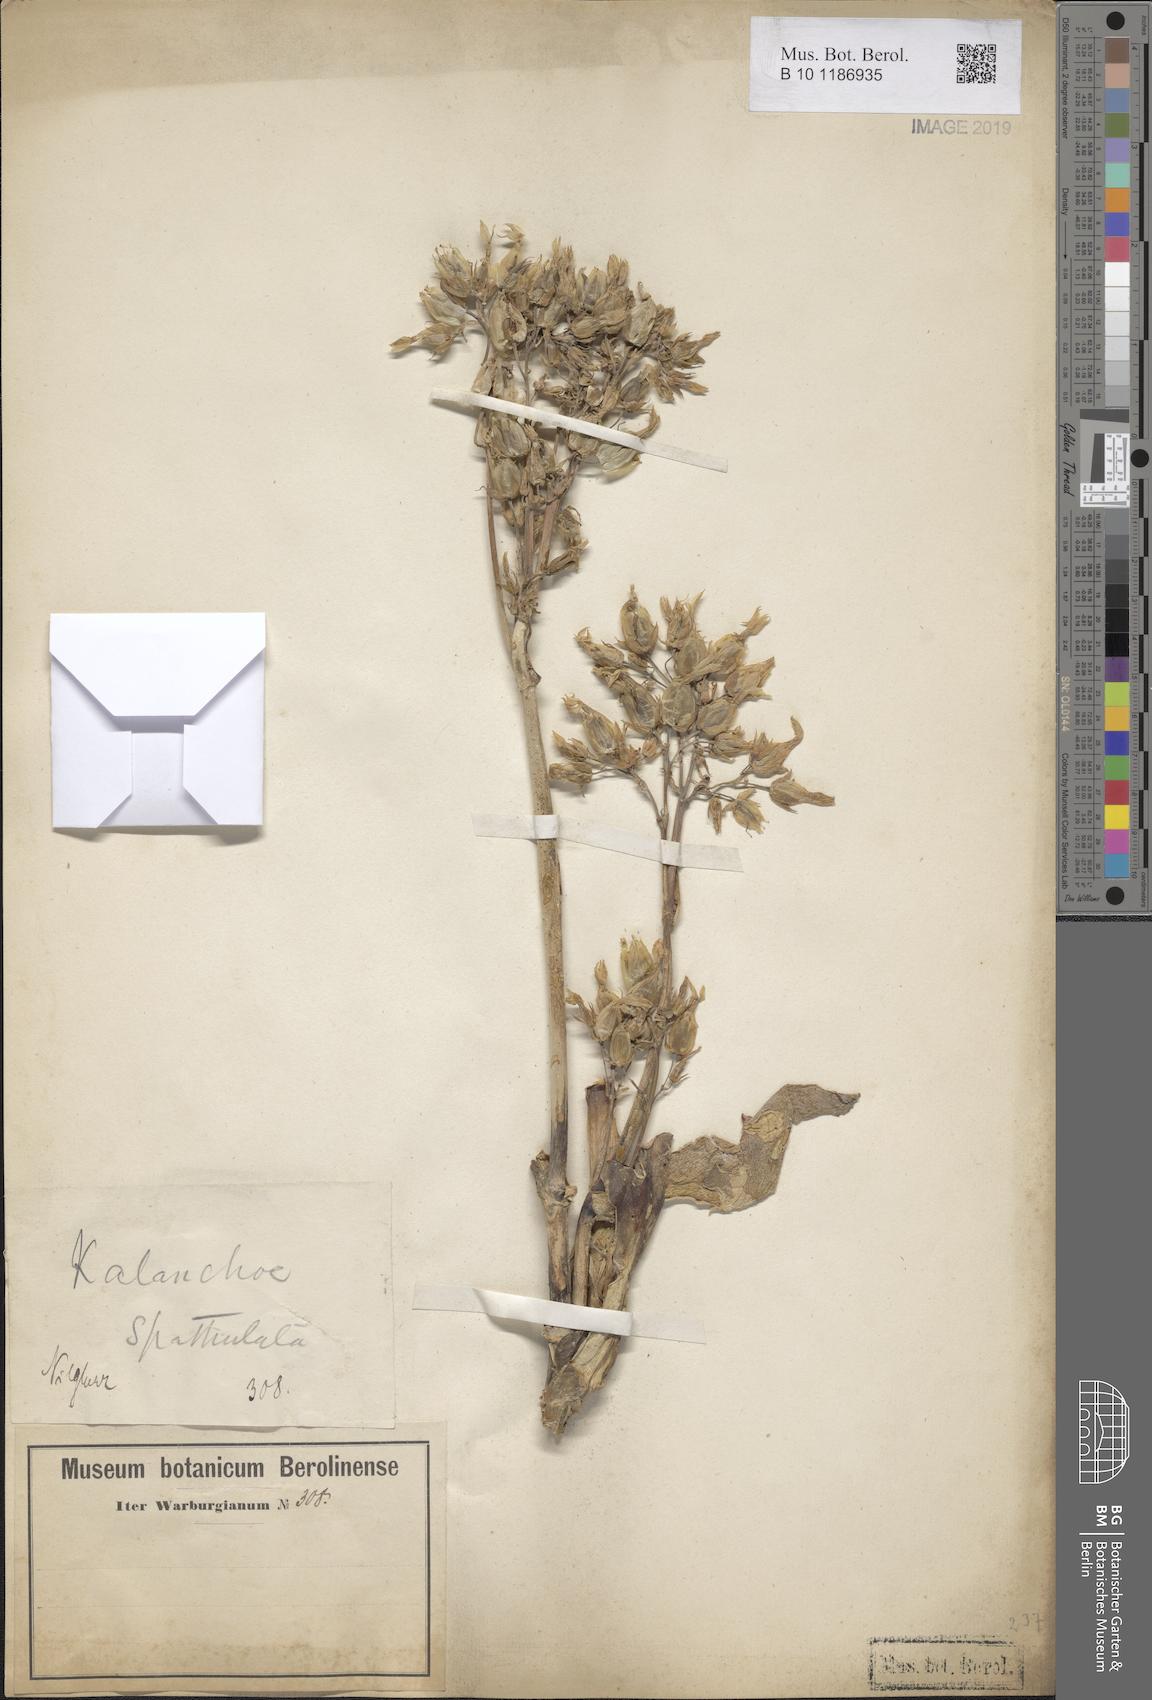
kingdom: Plantae
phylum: Tracheophyta
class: Magnoliopsida
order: Saxifragales
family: Crassulaceae
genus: Kalanchoe
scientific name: Kalanchoe integra
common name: Neverdie
